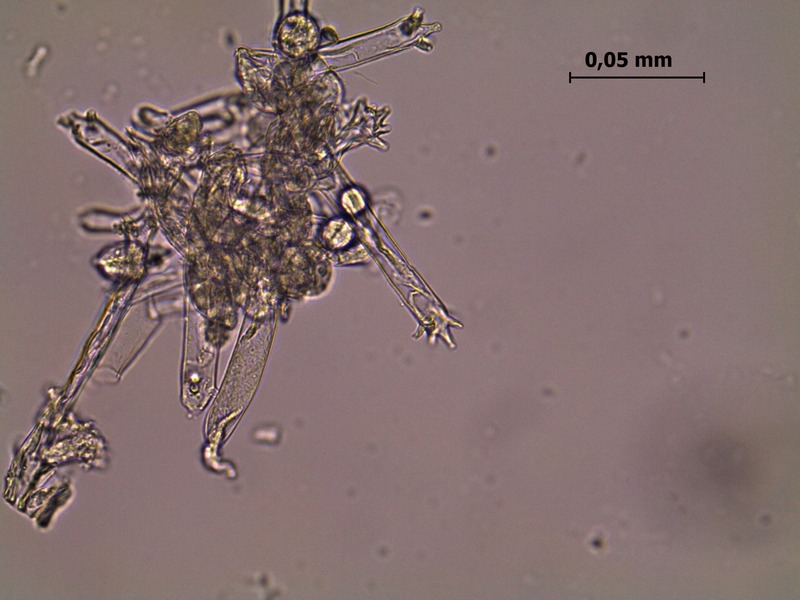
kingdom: Chromista
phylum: Oomycota
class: Peronosporea
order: Peronosporales
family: Peronosporaceae
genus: Plasmoverna
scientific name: Plasmoverna pygmaea
